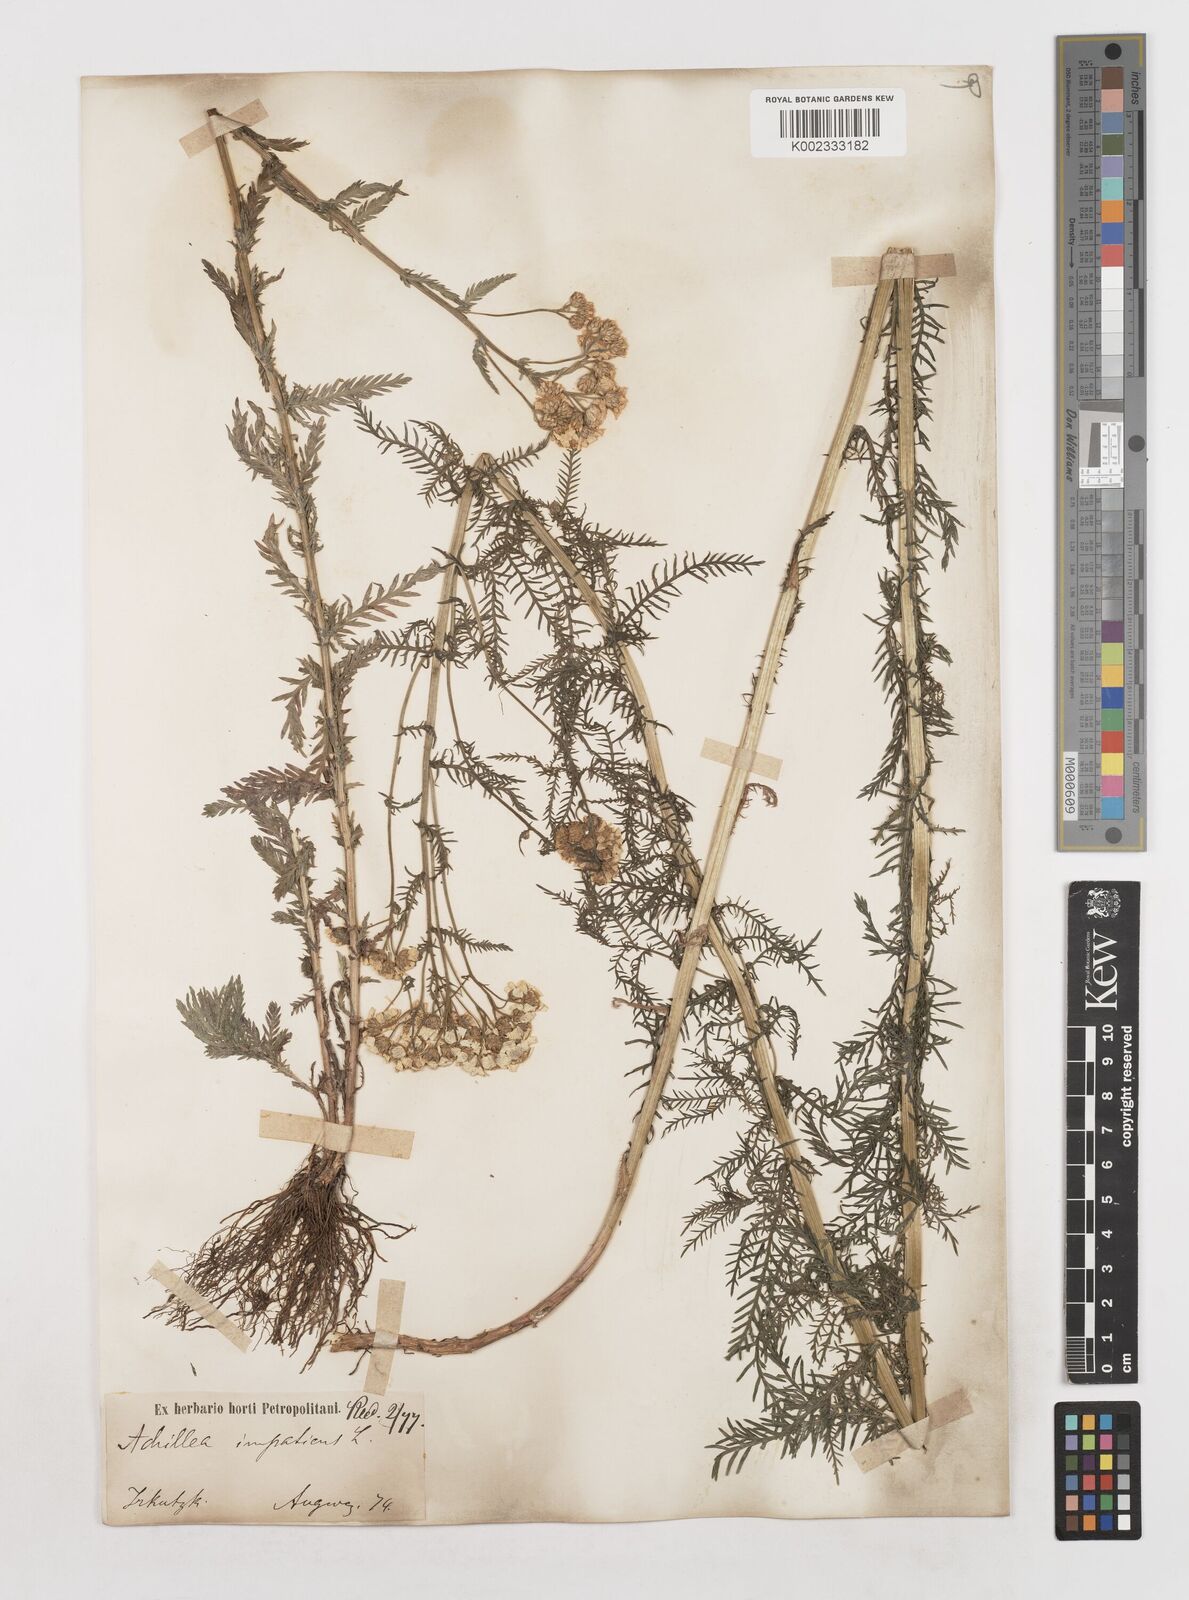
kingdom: Plantae
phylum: Tracheophyta
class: Magnoliopsida
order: Asterales
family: Asteraceae
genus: Achillea
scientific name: Achillea impatiens
